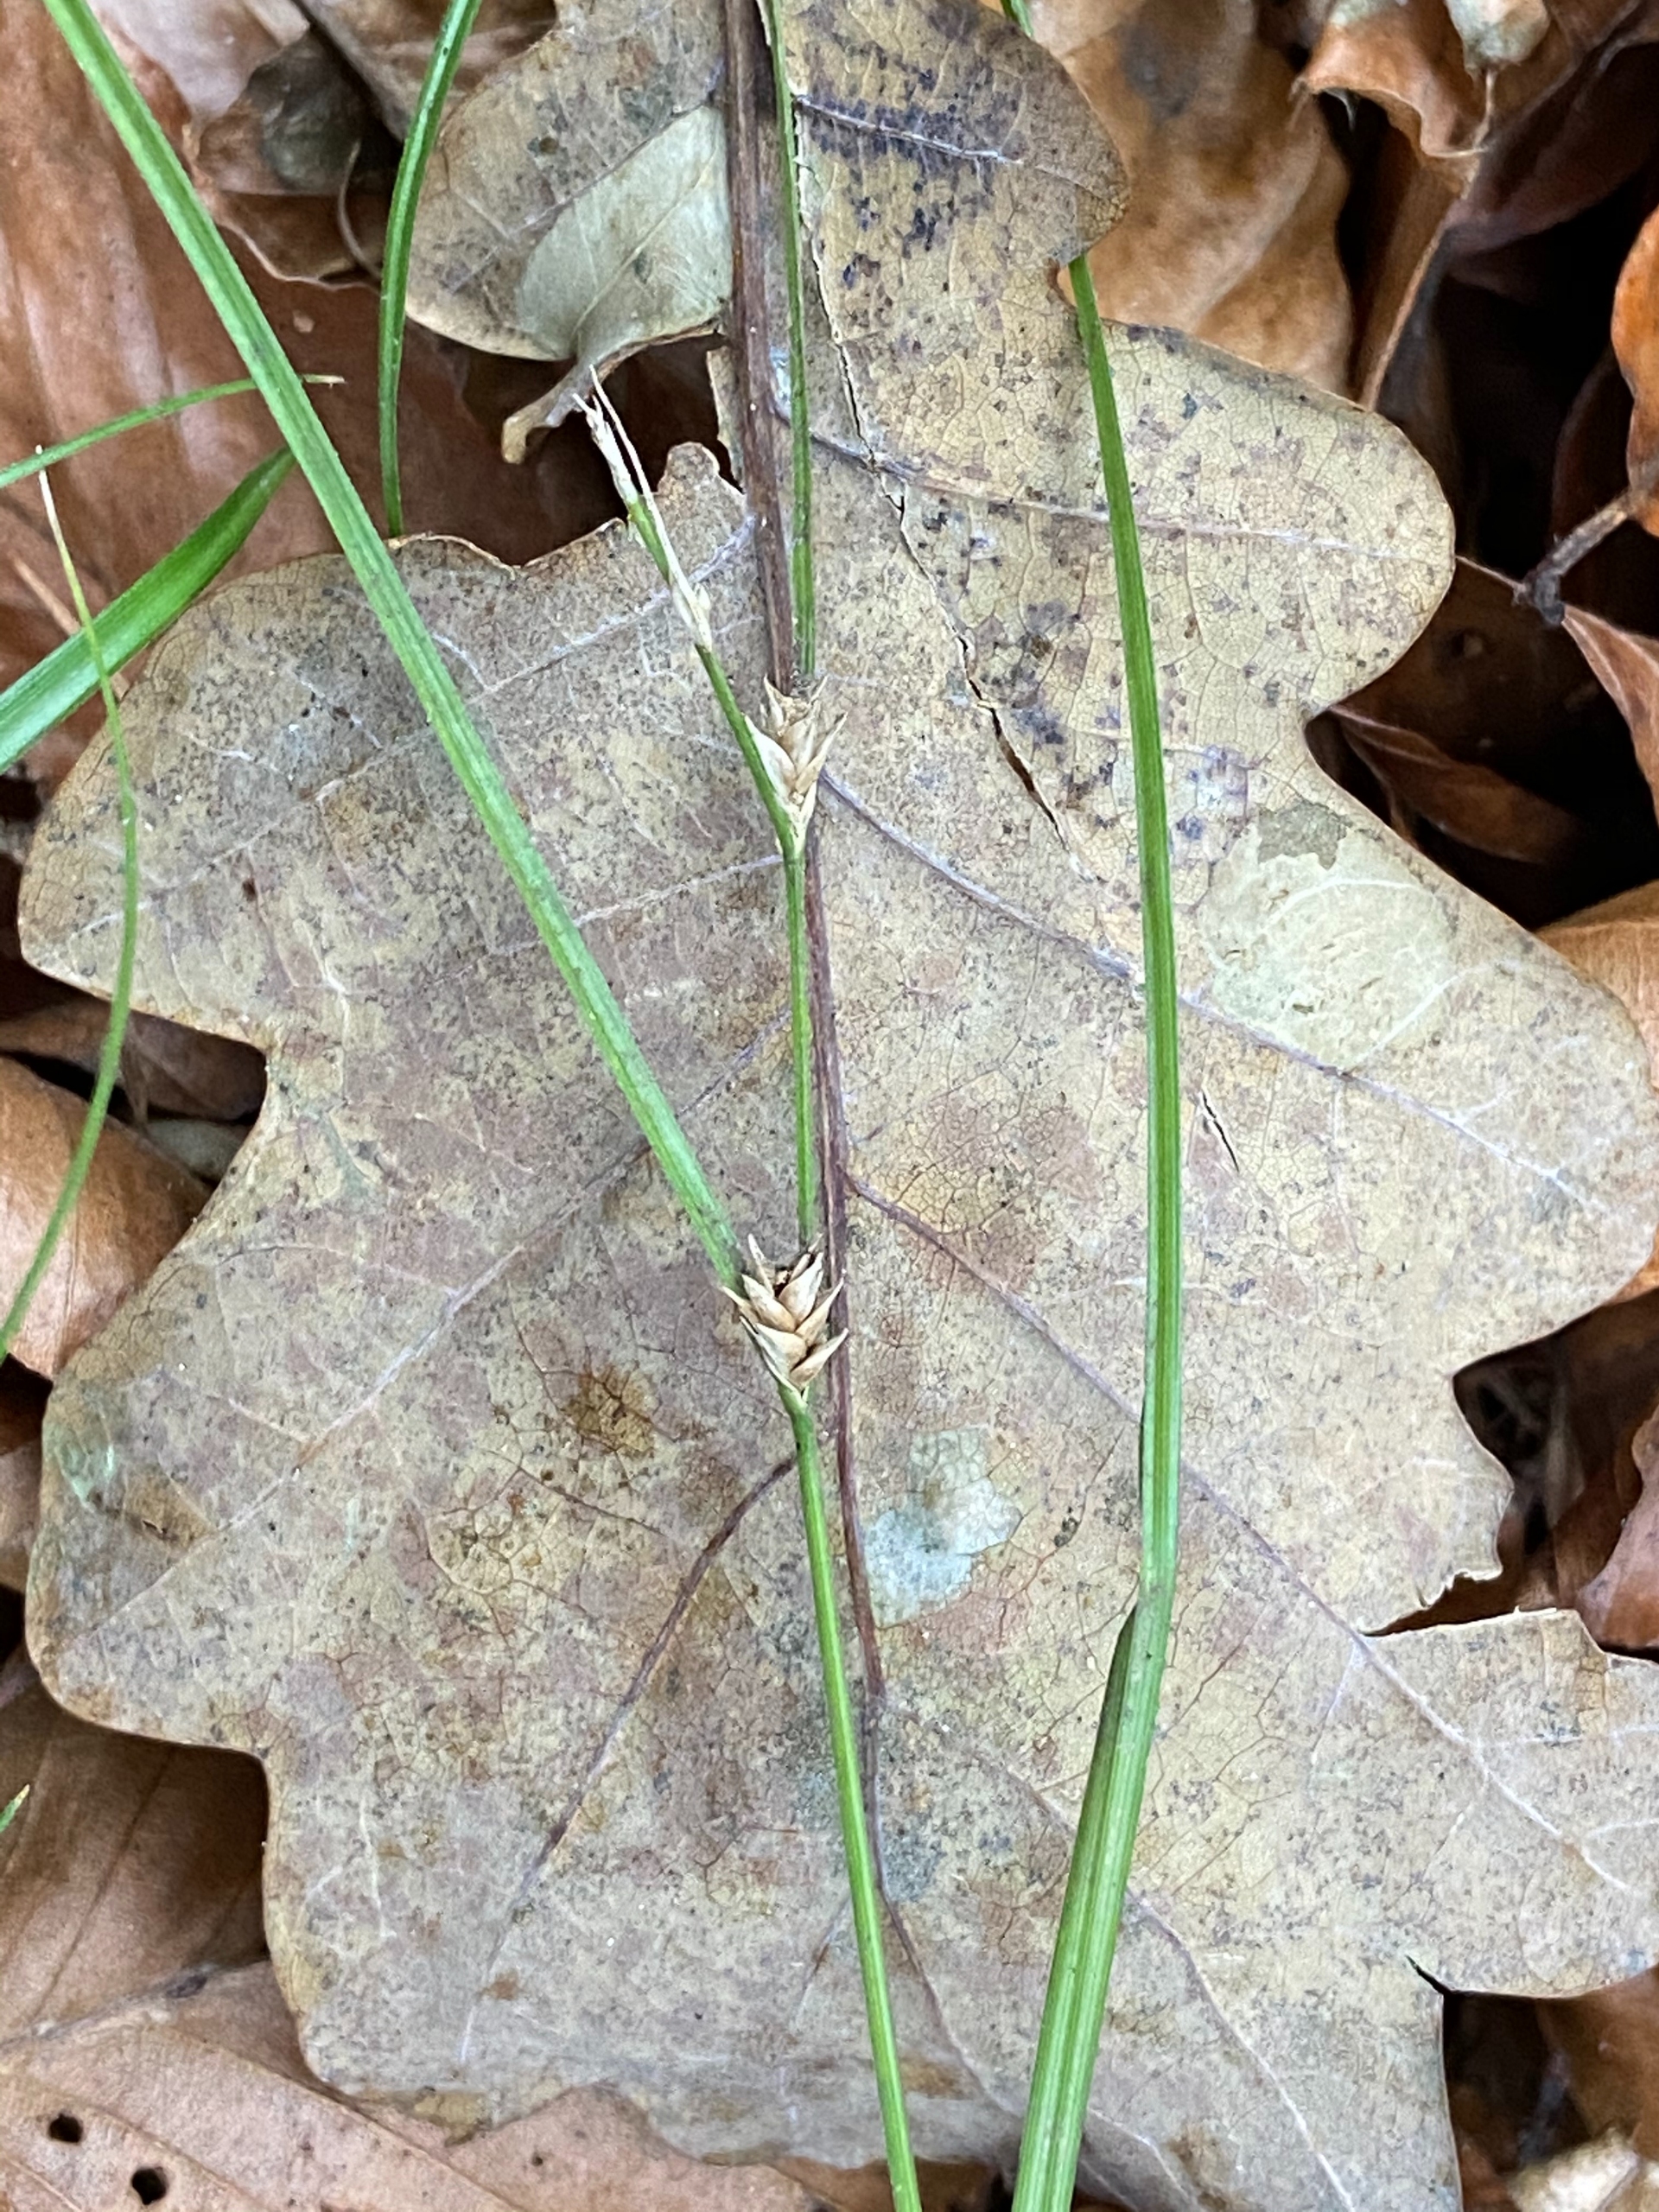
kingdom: Plantae
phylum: Tracheophyta
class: Liliopsida
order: Poales
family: Cyperaceae
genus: Carex
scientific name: Carex remota
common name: Akselblomstret star
